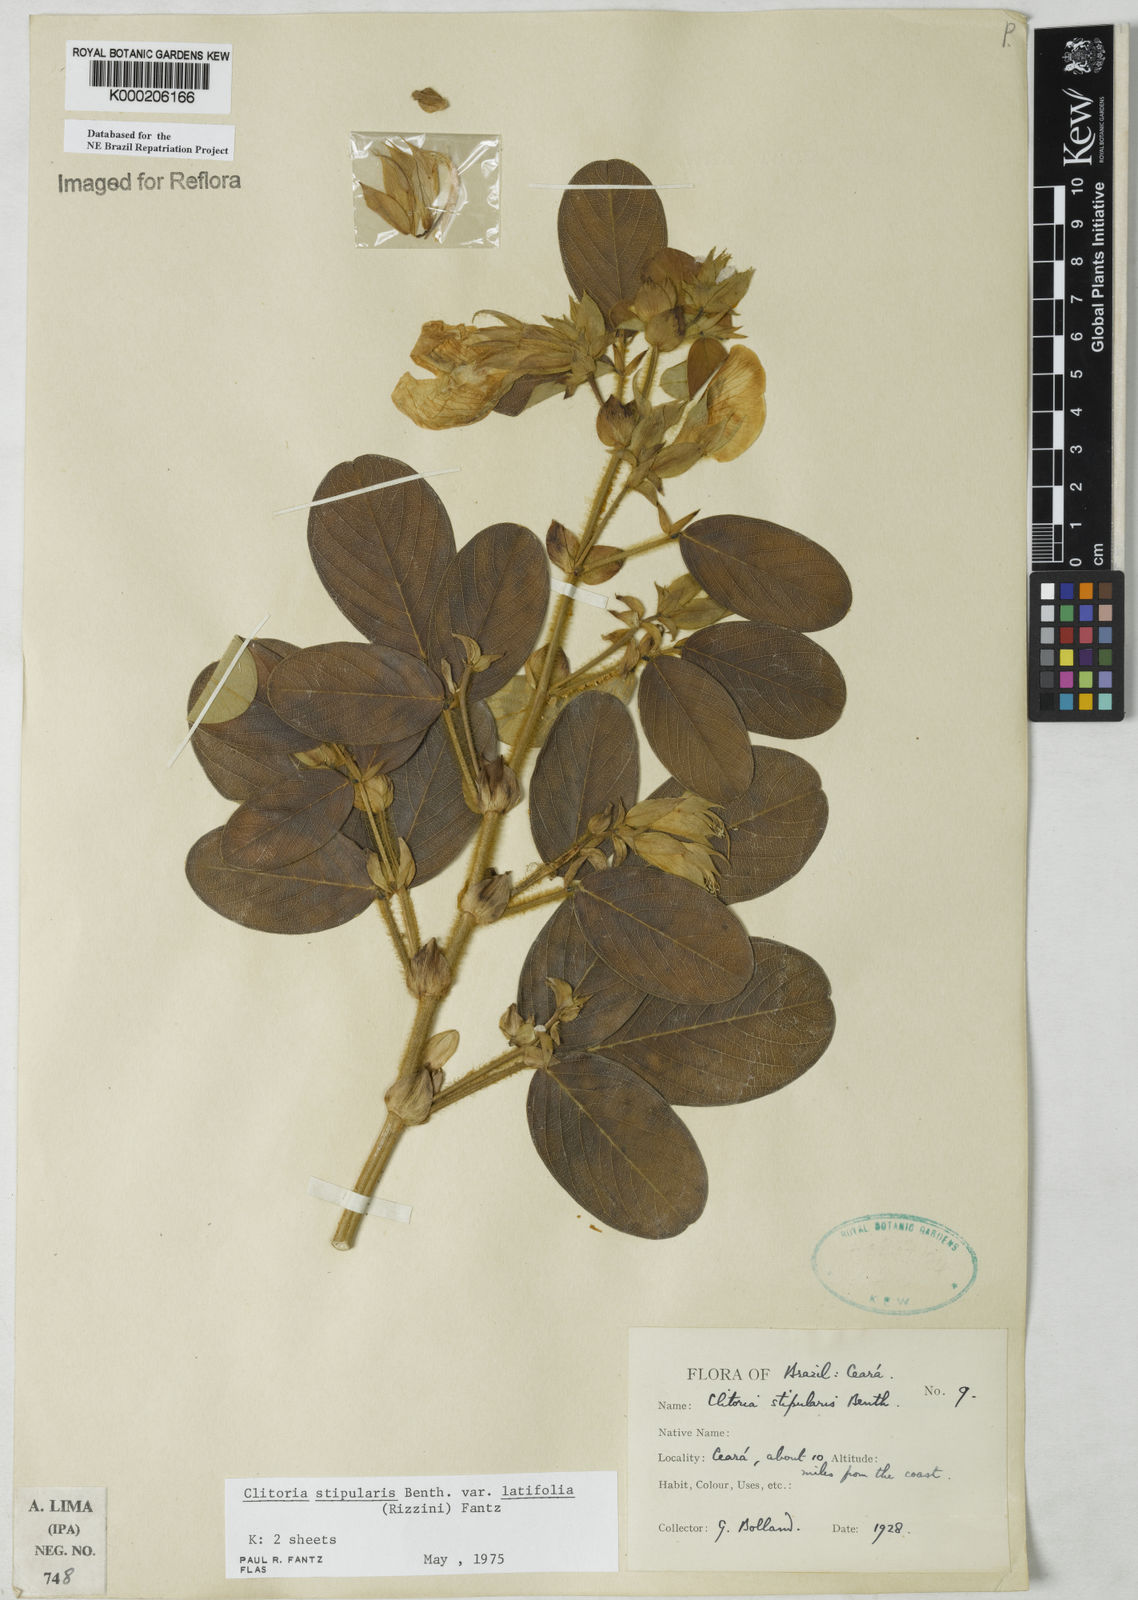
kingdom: Plantae
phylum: Tracheophyta
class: Magnoliopsida
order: Fabales
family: Fabaceae
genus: Clitoria
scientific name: Clitoria stipularis
